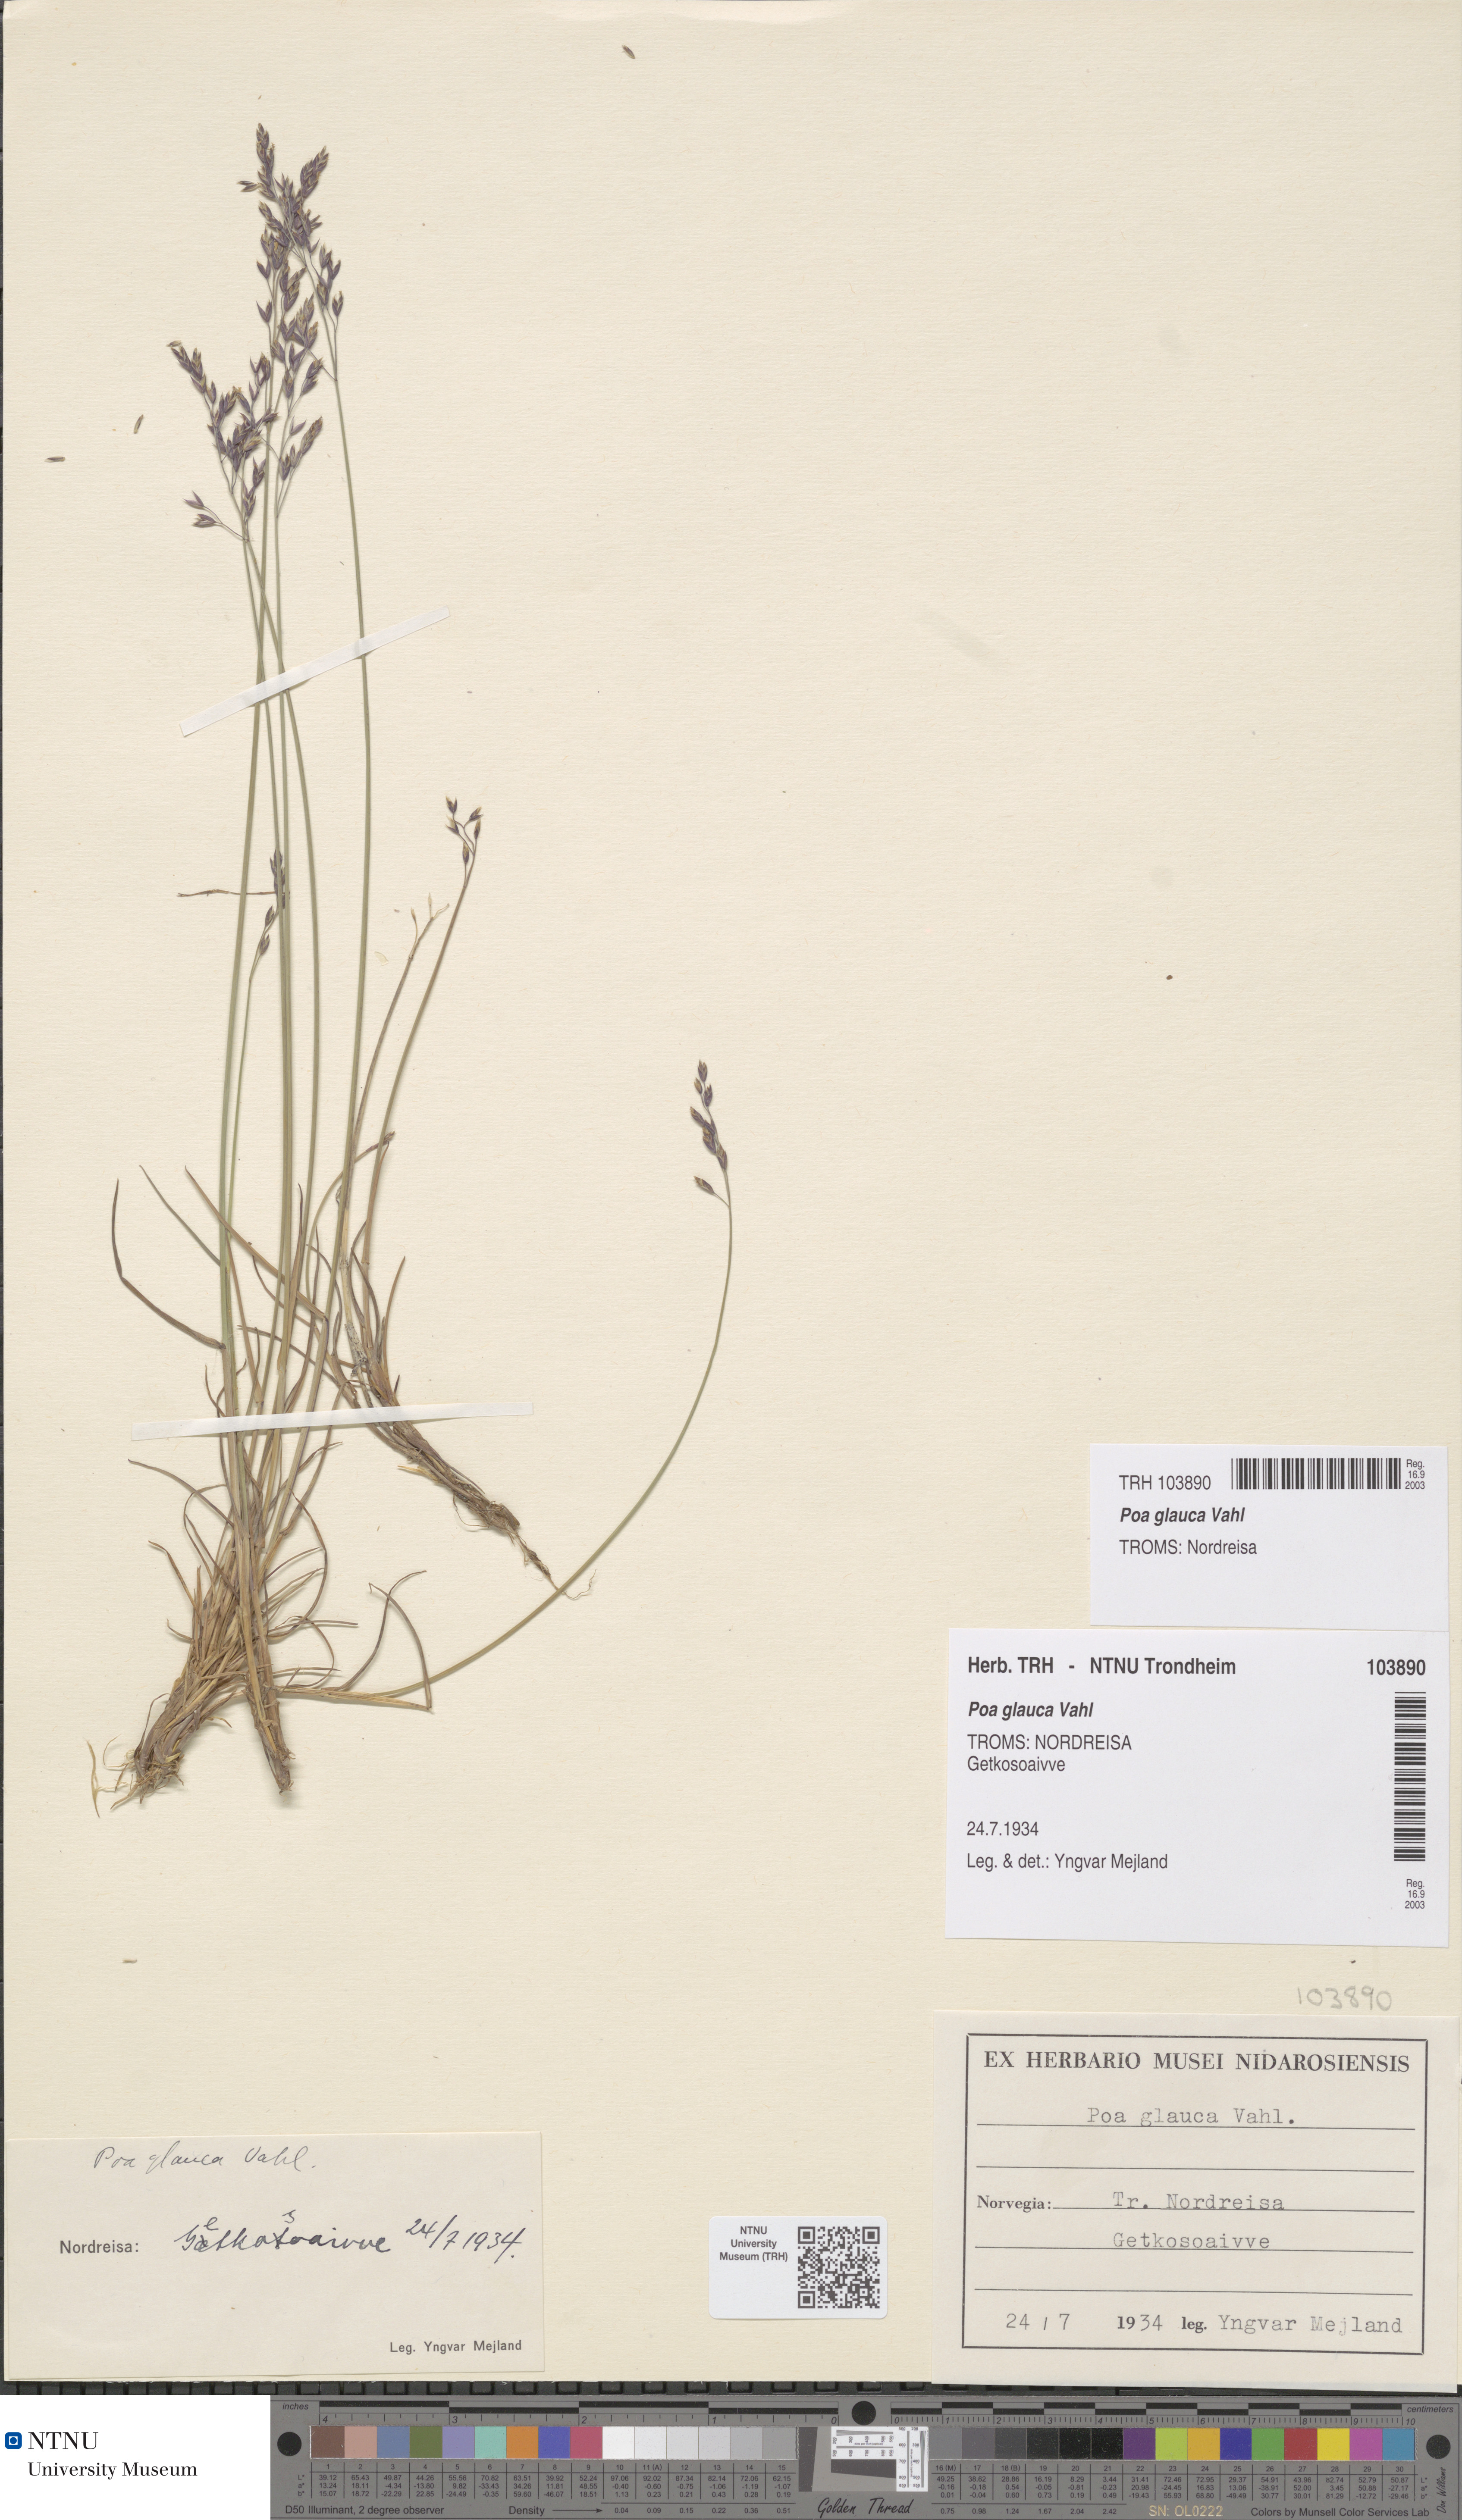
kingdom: Plantae
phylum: Tracheophyta
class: Liliopsida
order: Poales
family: Poaceae
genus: Poa
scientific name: Poa glauca
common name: Glaucous bluegrass
